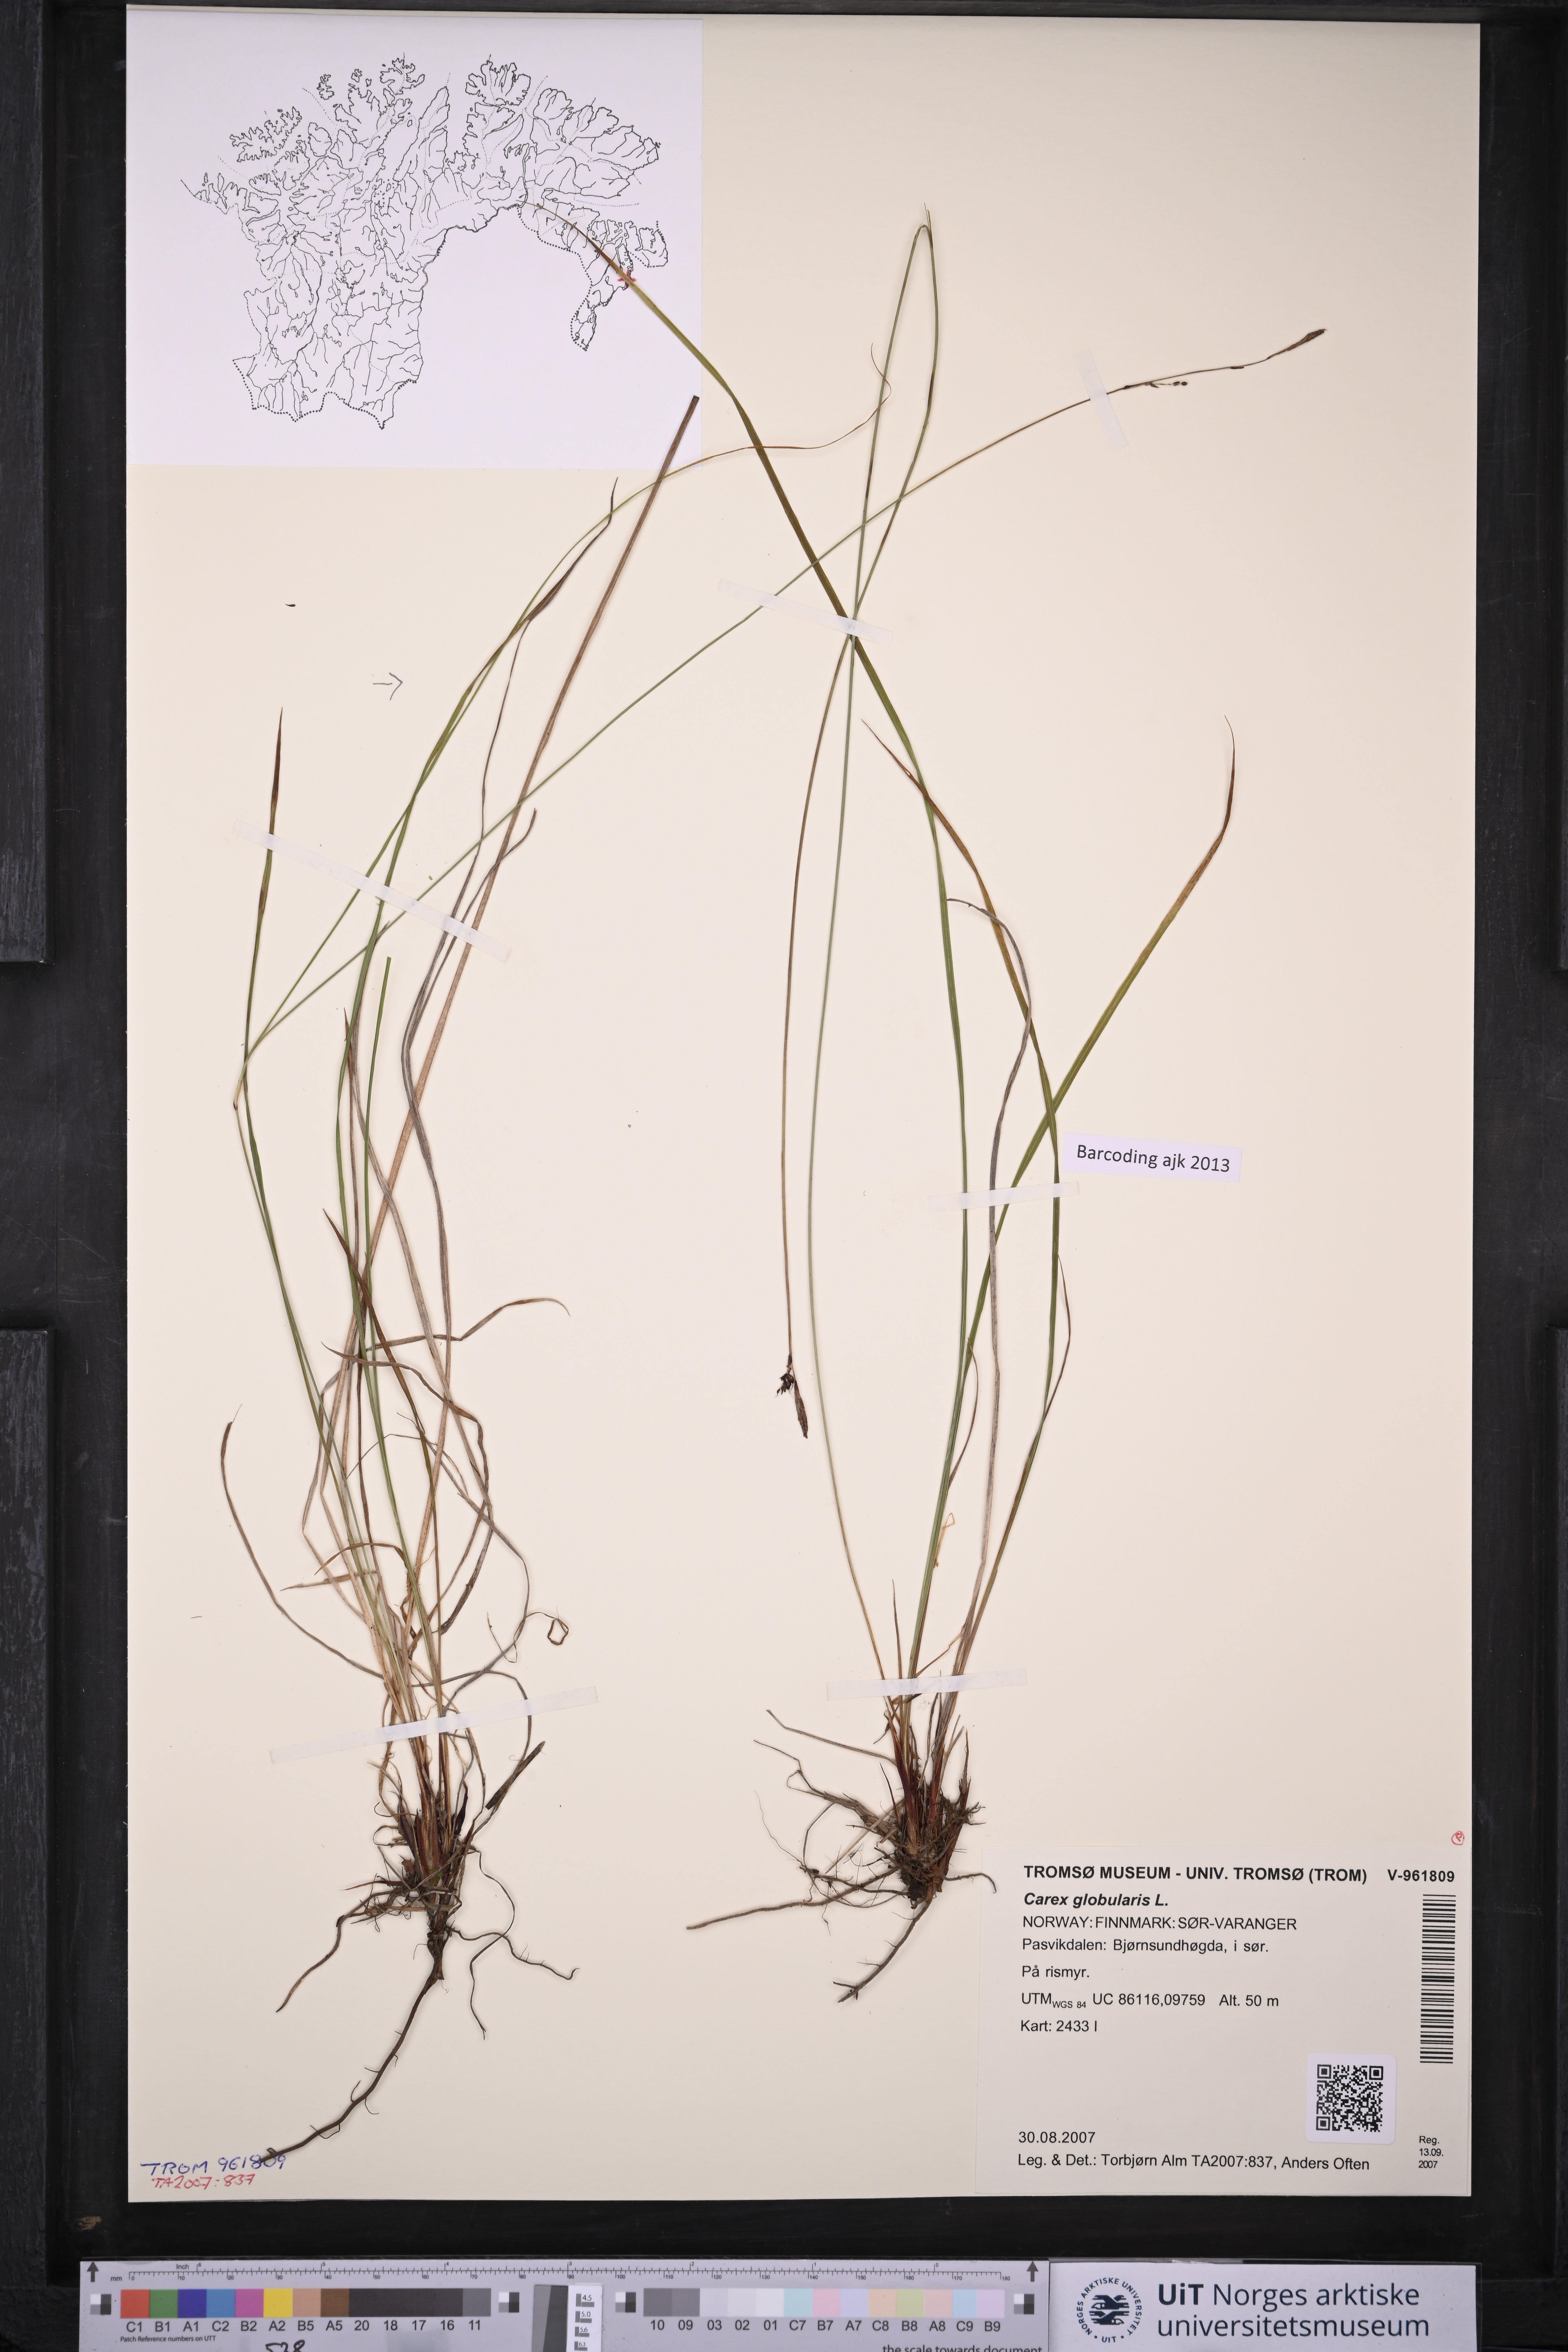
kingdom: Plantae
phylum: Tracheophyta
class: Liliopsida
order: Poales
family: Cyperaceae
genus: Carex
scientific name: Carex globularis
